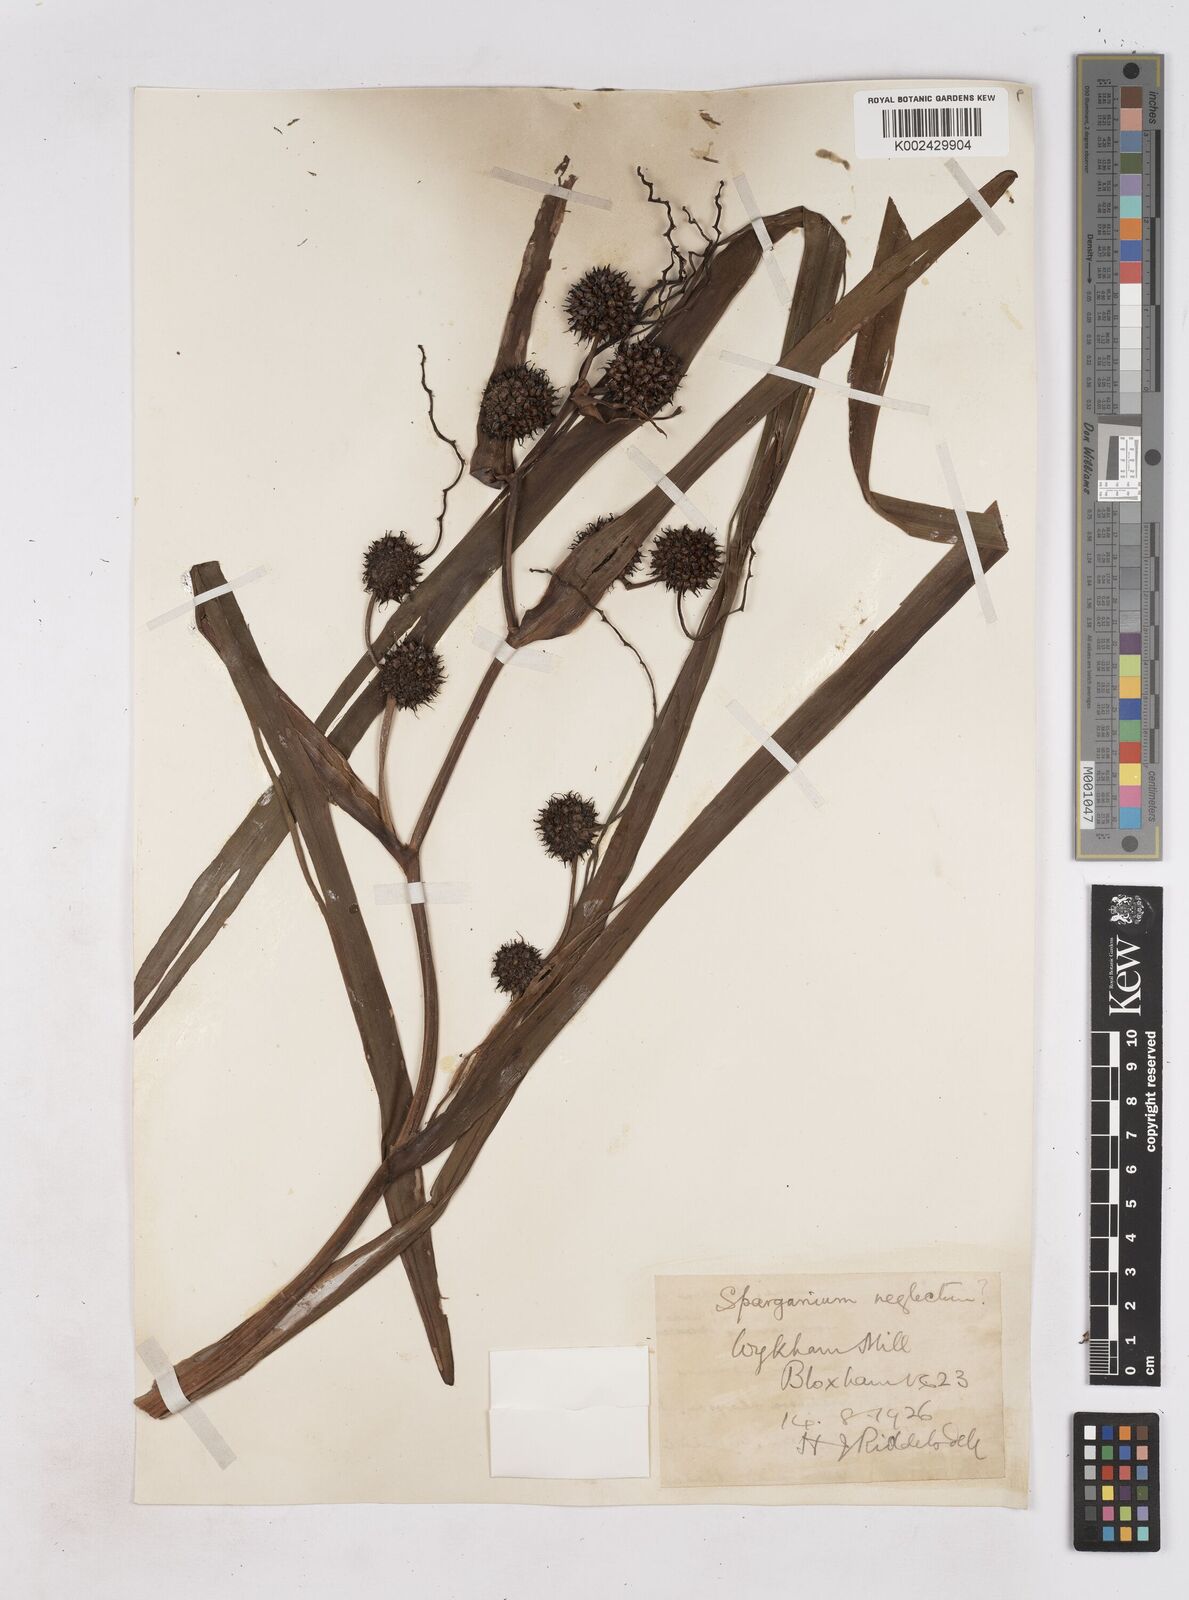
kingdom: Plantae
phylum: Tracheophyta
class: Liliopsida
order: Poales
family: Typhaceae
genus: Sparganium
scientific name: Sparganium erectum
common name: Branched bur-reed
